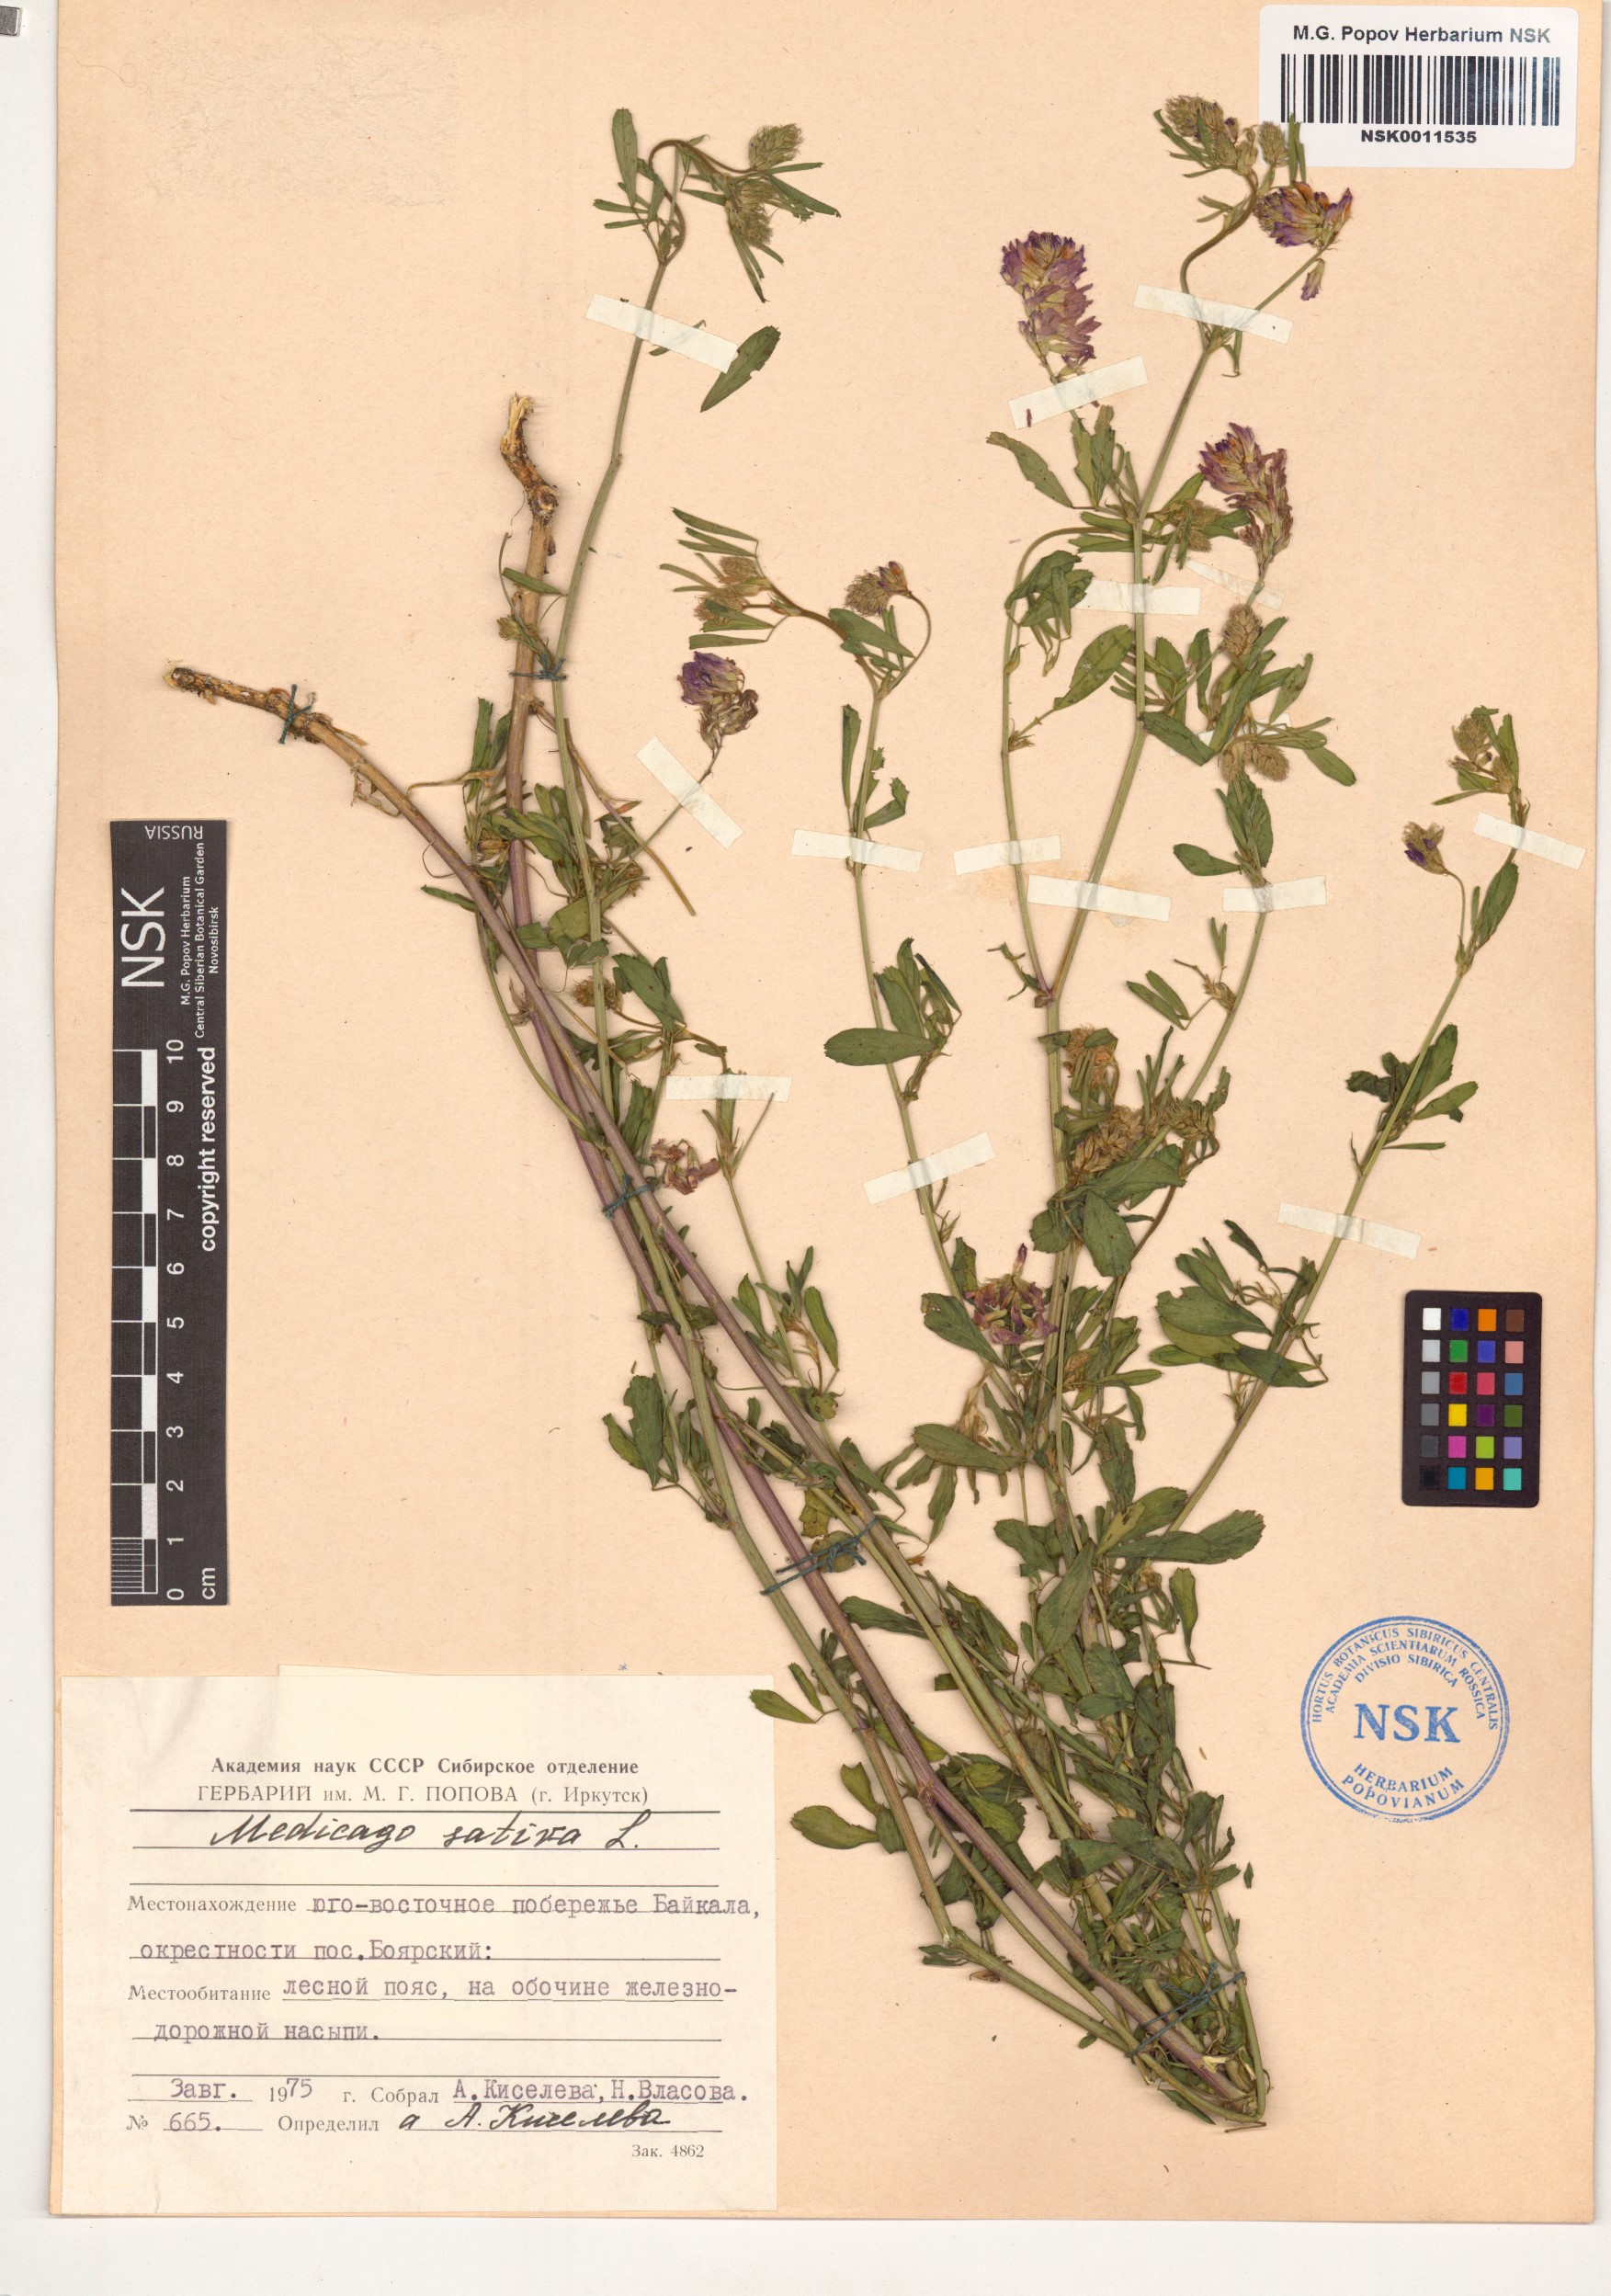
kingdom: Plantae
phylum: Tracheophyta
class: Magnoliopsida
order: Fabales
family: Fabaceae
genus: Medicago
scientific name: Medicago sativa
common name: Alfalfa
